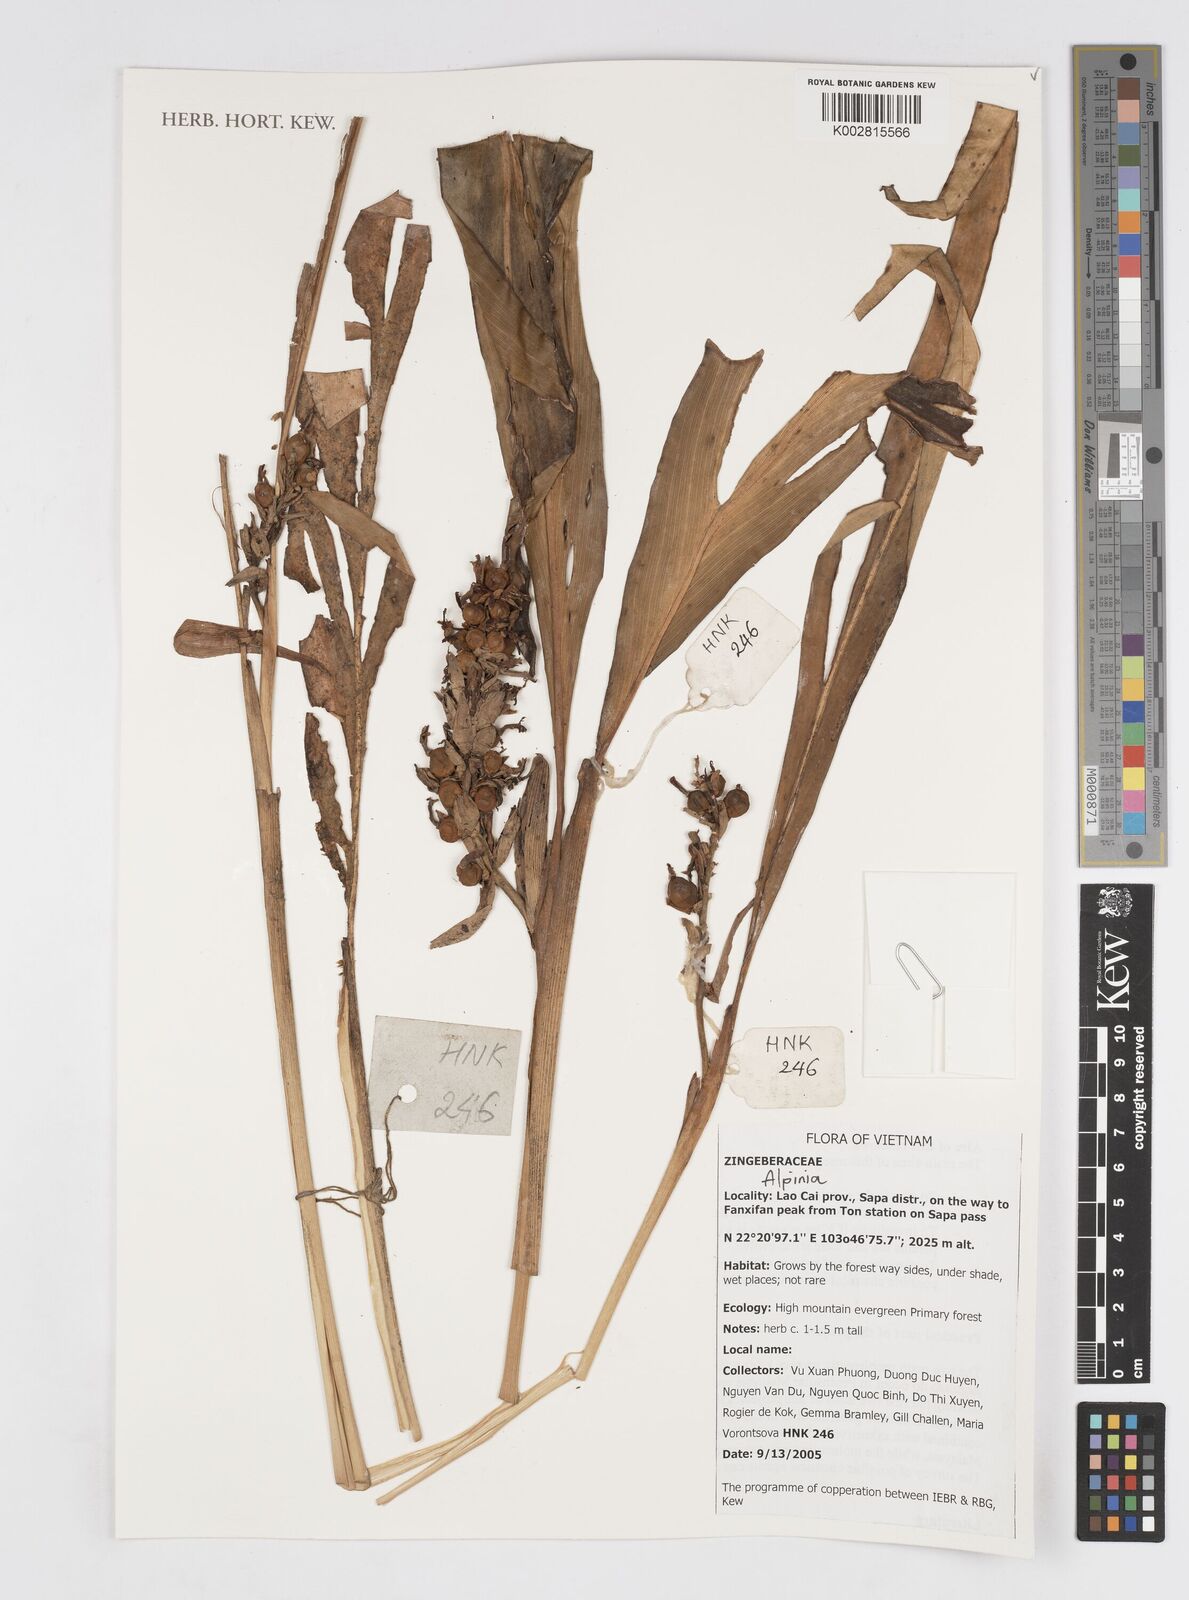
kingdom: Plantae
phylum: Tracheophyta
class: Liliopsida
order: Zingiberales
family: Zingiberaceae
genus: Alpinia
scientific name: Alpinia
